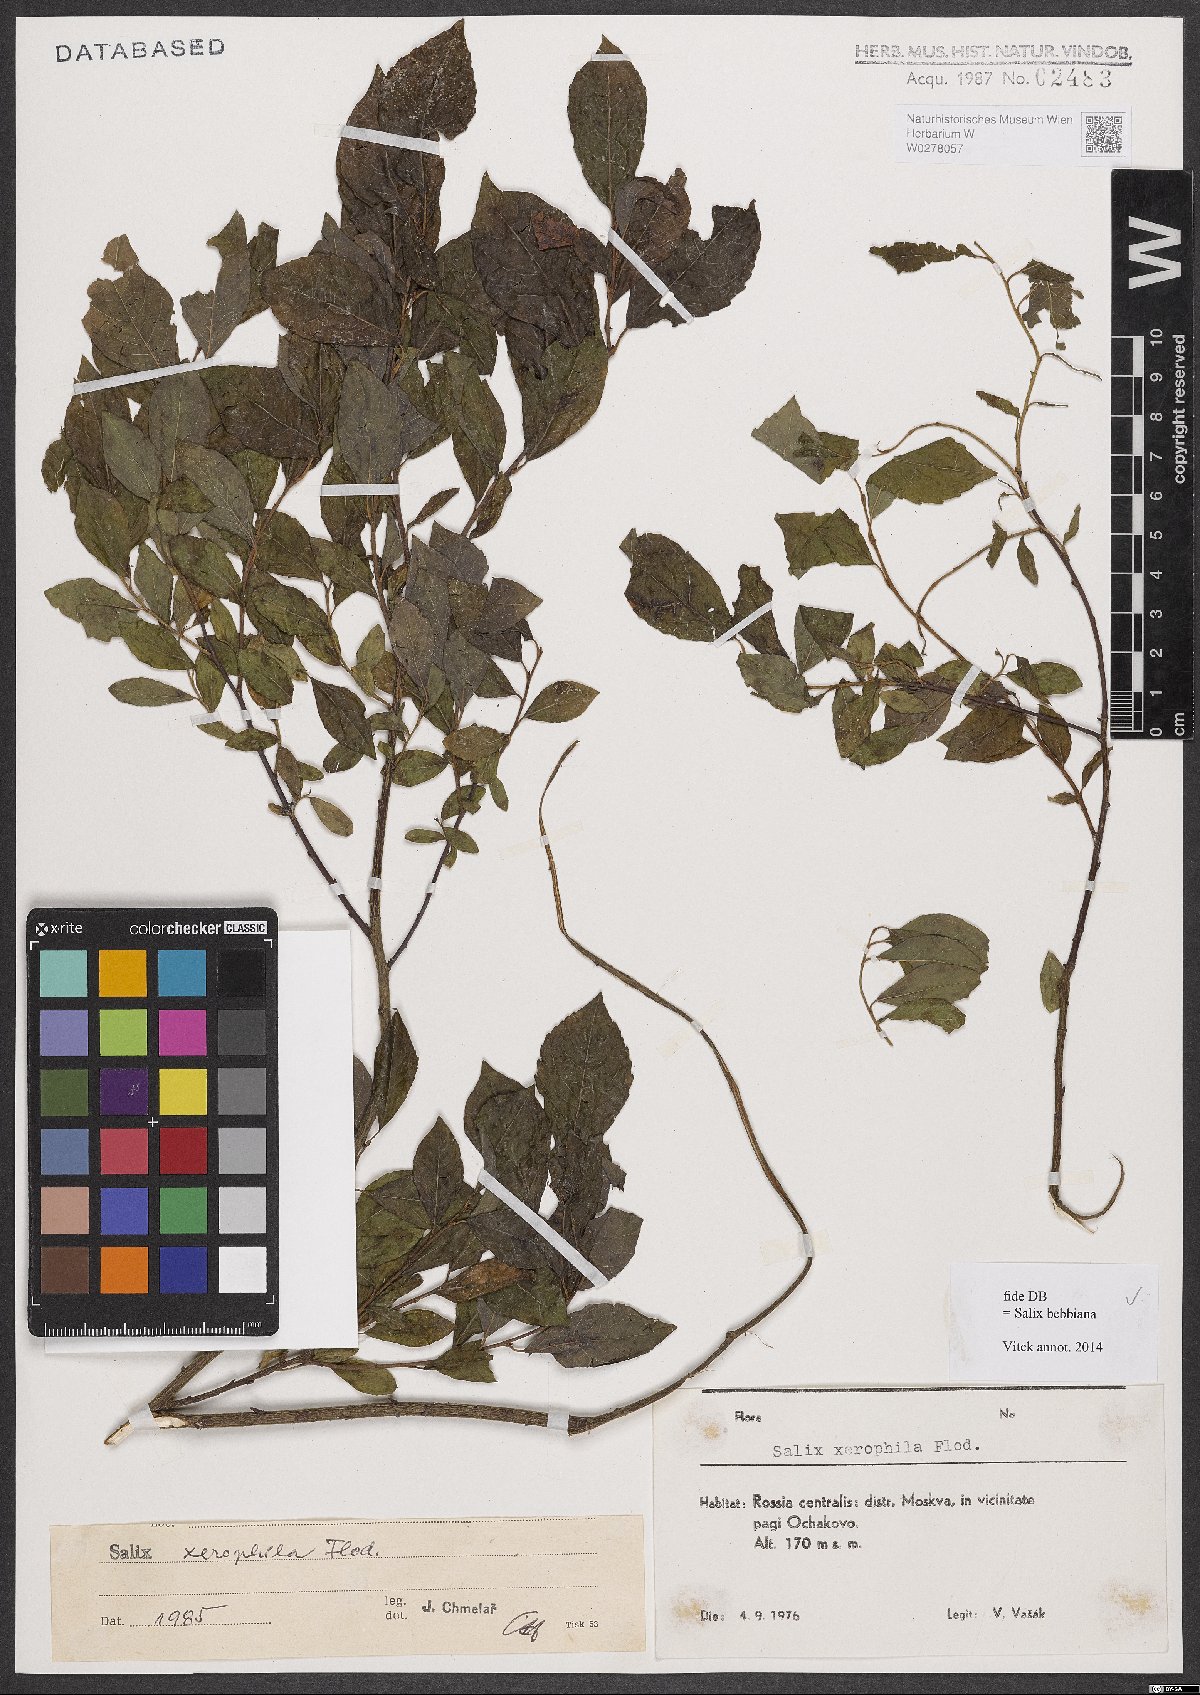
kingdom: Plantae
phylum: Tracheophyta
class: Magnoliopsida
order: Malpighiales
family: Salicaceae
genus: Salix
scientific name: Salix bebbiana
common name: Bebb's willow
